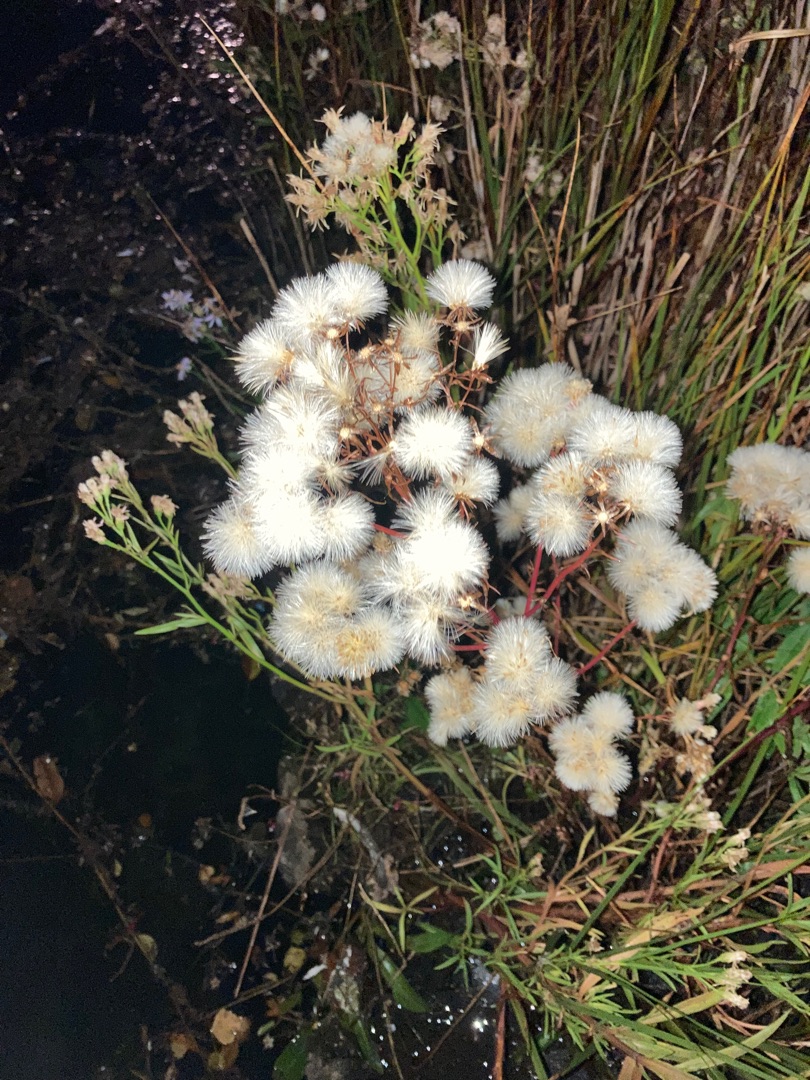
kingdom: Plantae
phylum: Tracheophyta
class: Magnoliopsida
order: Asterales
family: Asteraceae
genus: Tripolium
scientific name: Tripolium pannonicum
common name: Strandasters
